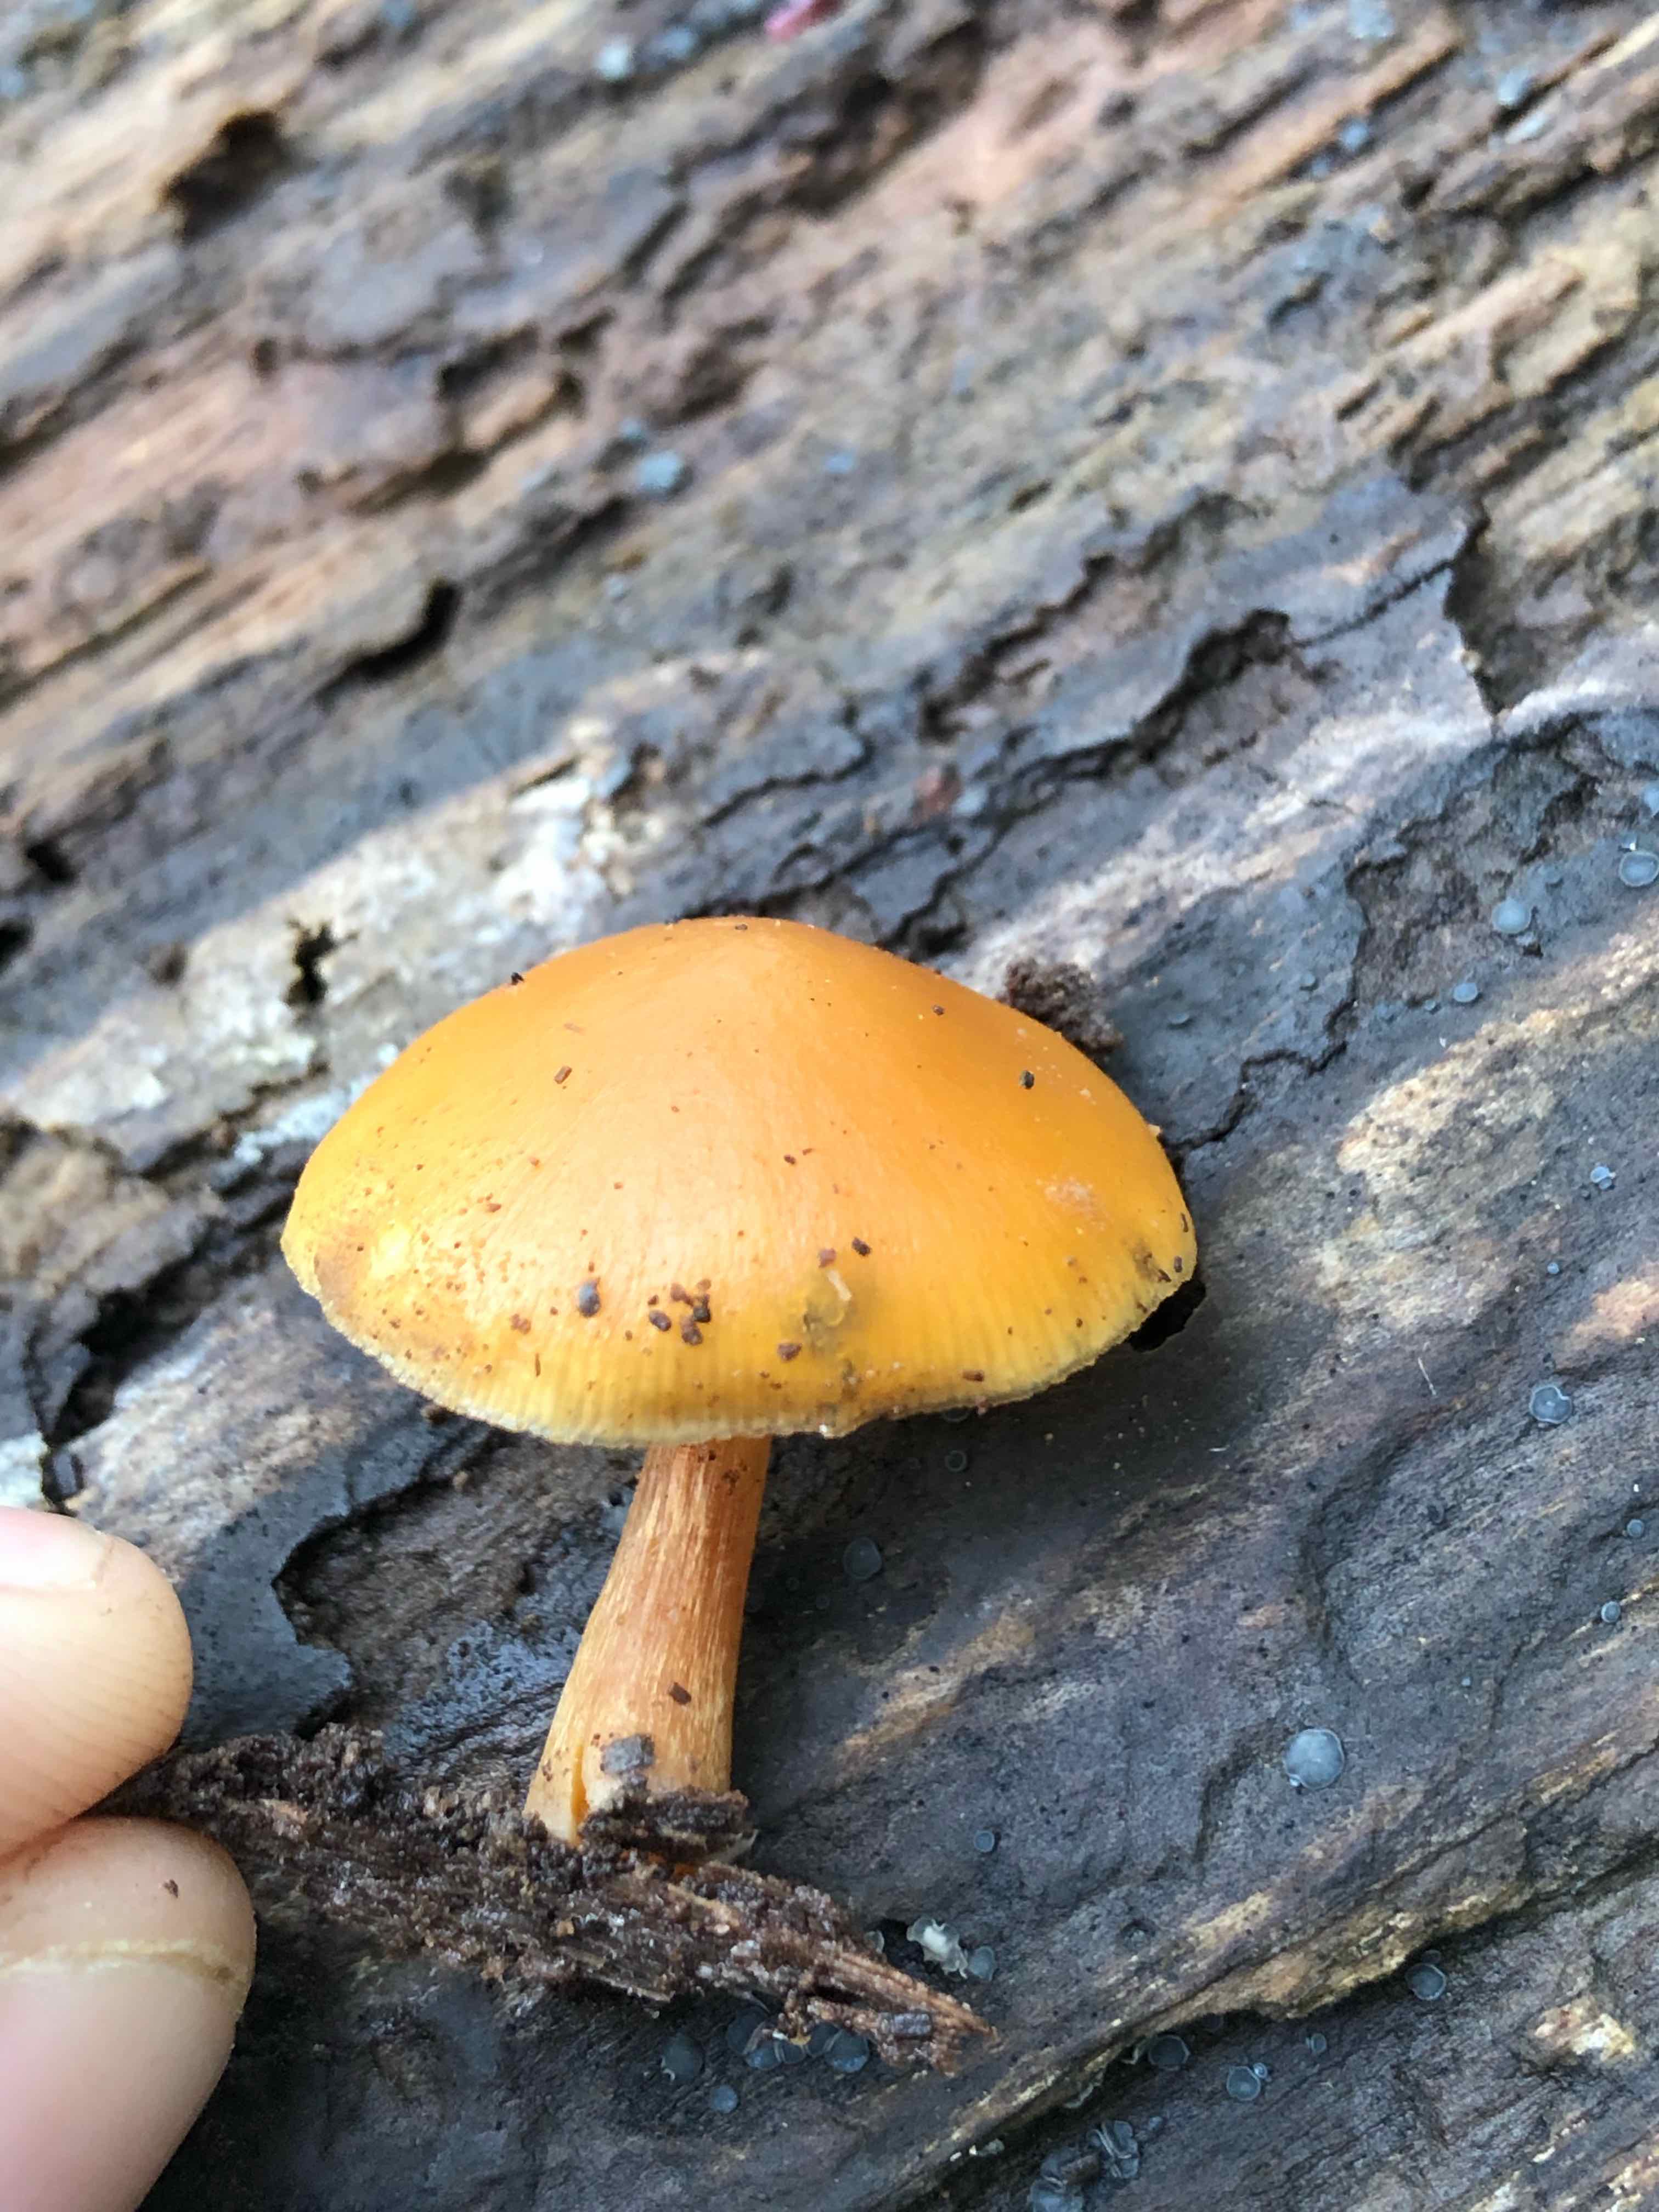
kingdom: Fungi
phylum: Basidiomycota
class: Agaricomycetes
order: Agaricales
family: Hymenogastraceae
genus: Galerina
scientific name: Galerina marginata
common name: randbæltet hjelmhat
